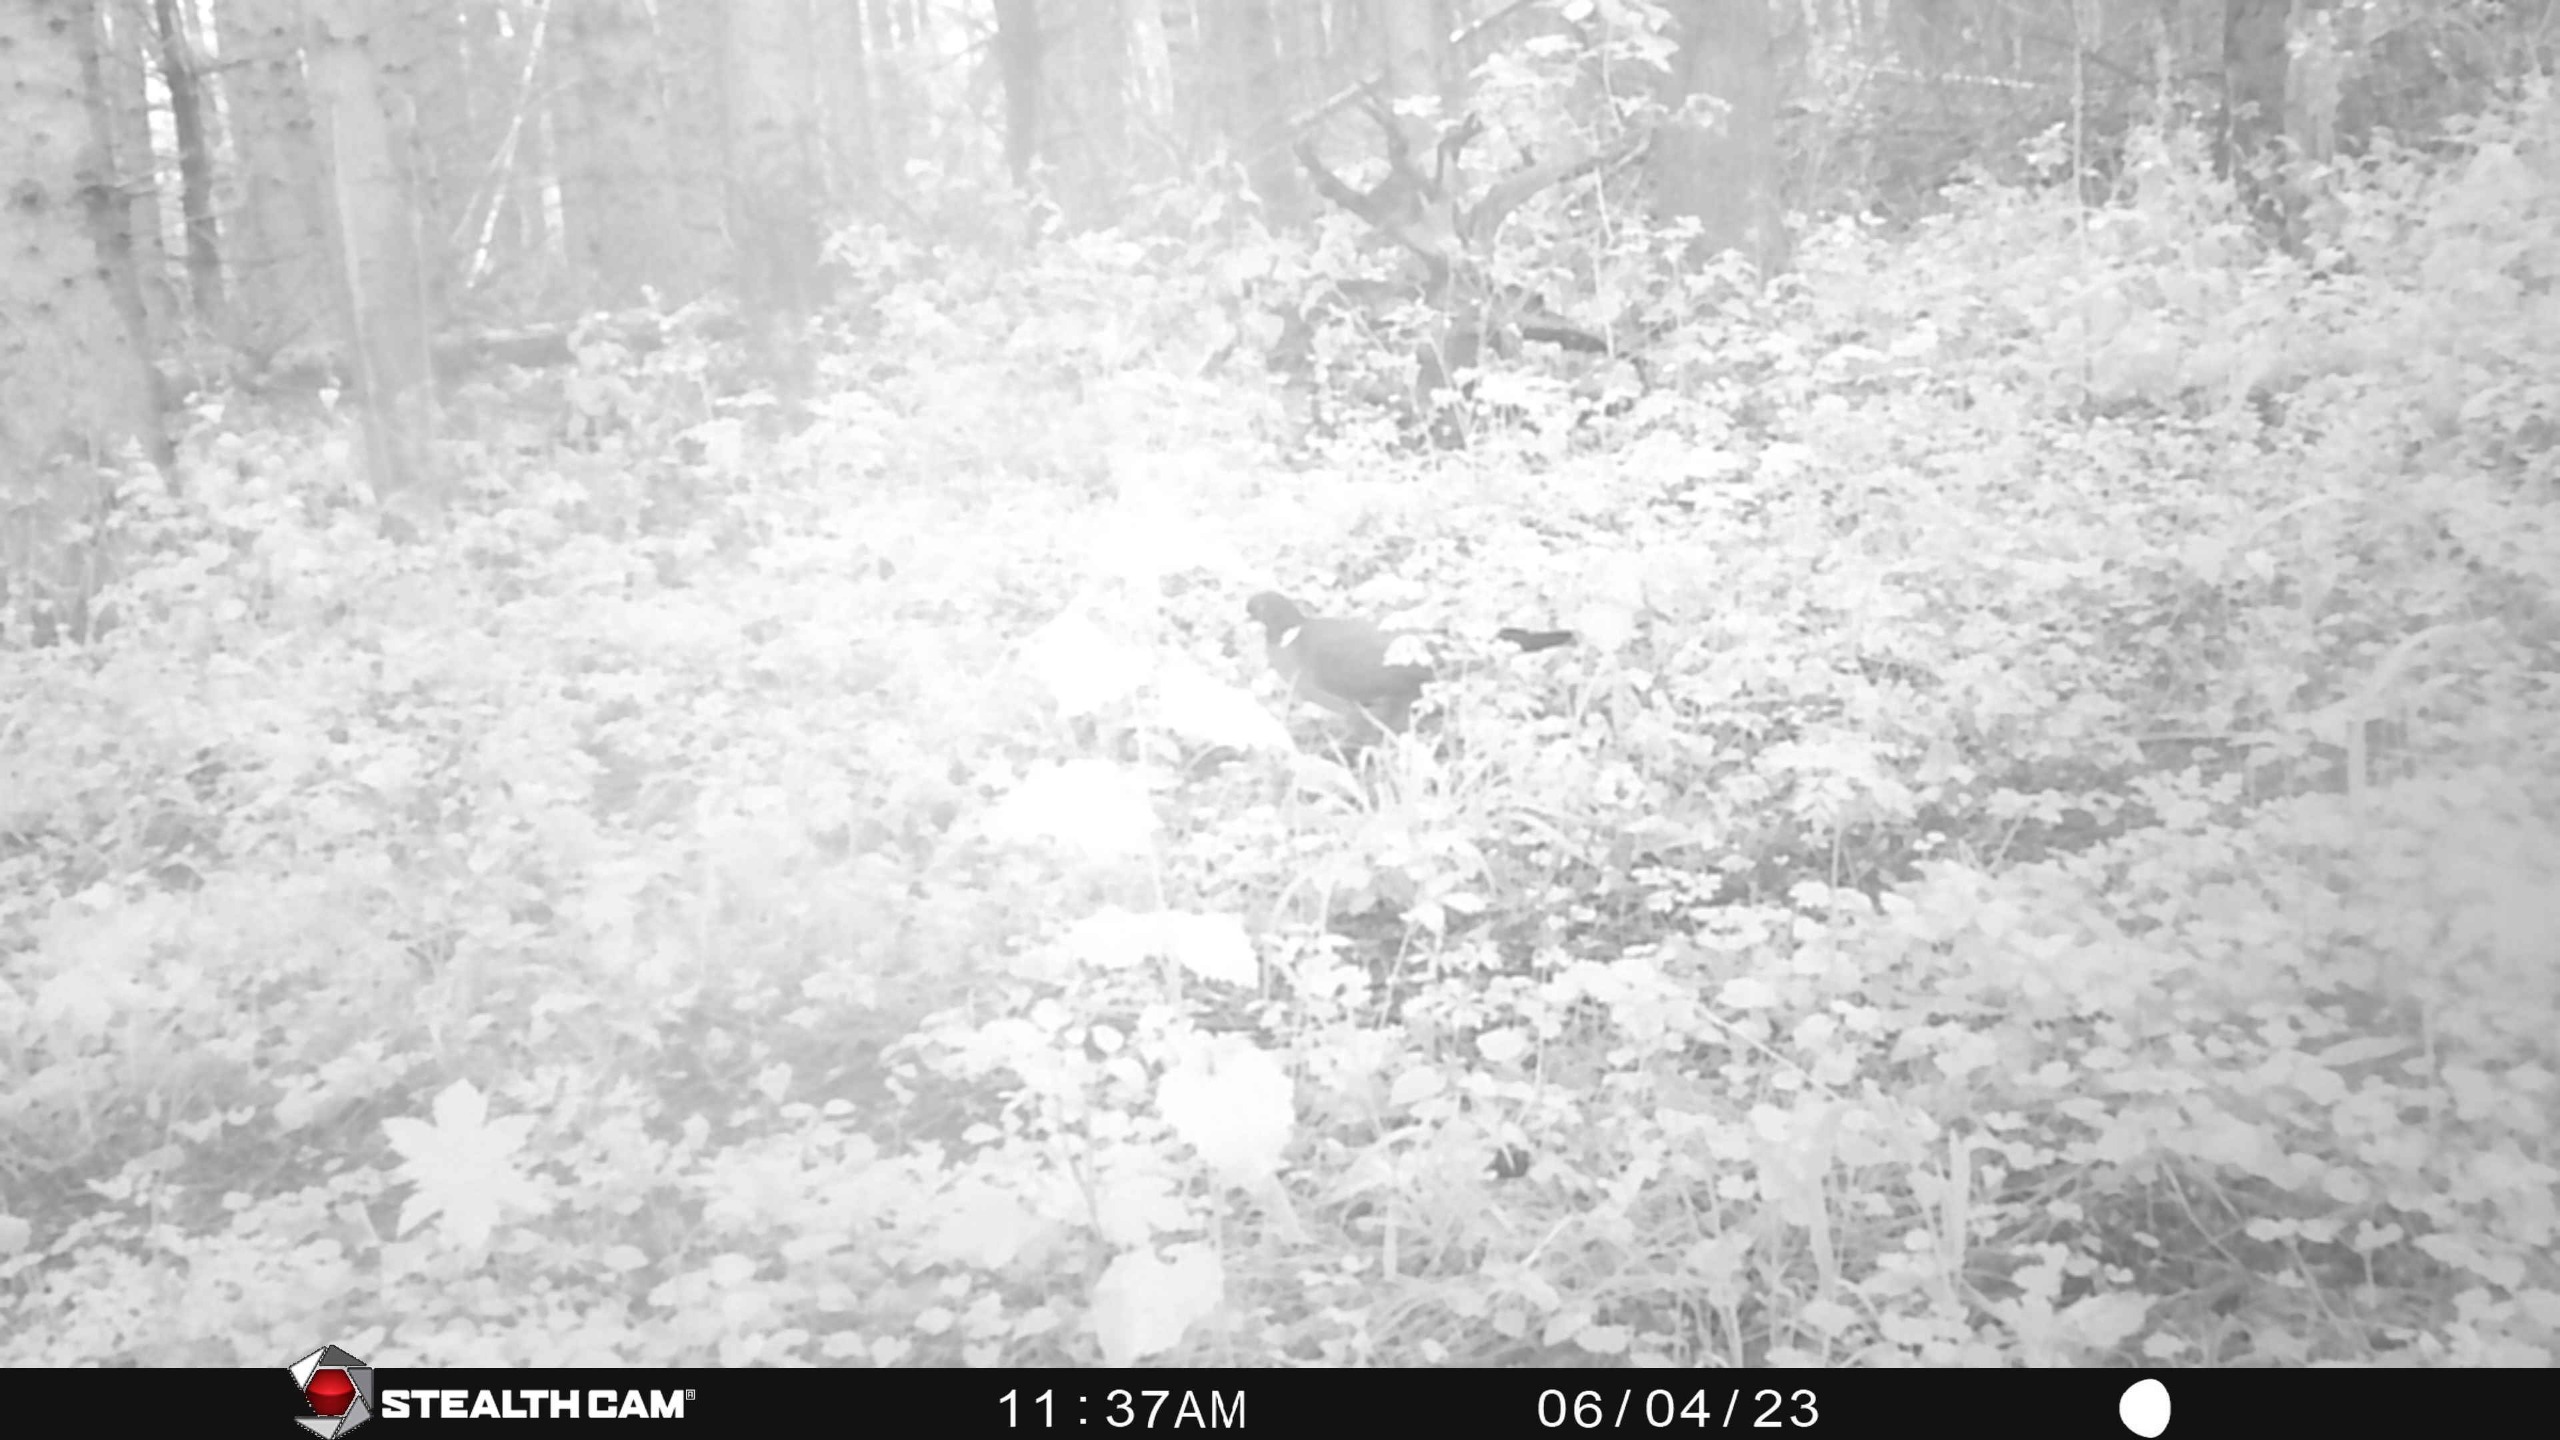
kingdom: Animalia
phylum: Chordata
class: Aves
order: Columbiformes
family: Columbidae
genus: Columba
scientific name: Columba palumbus
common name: Ringdue
